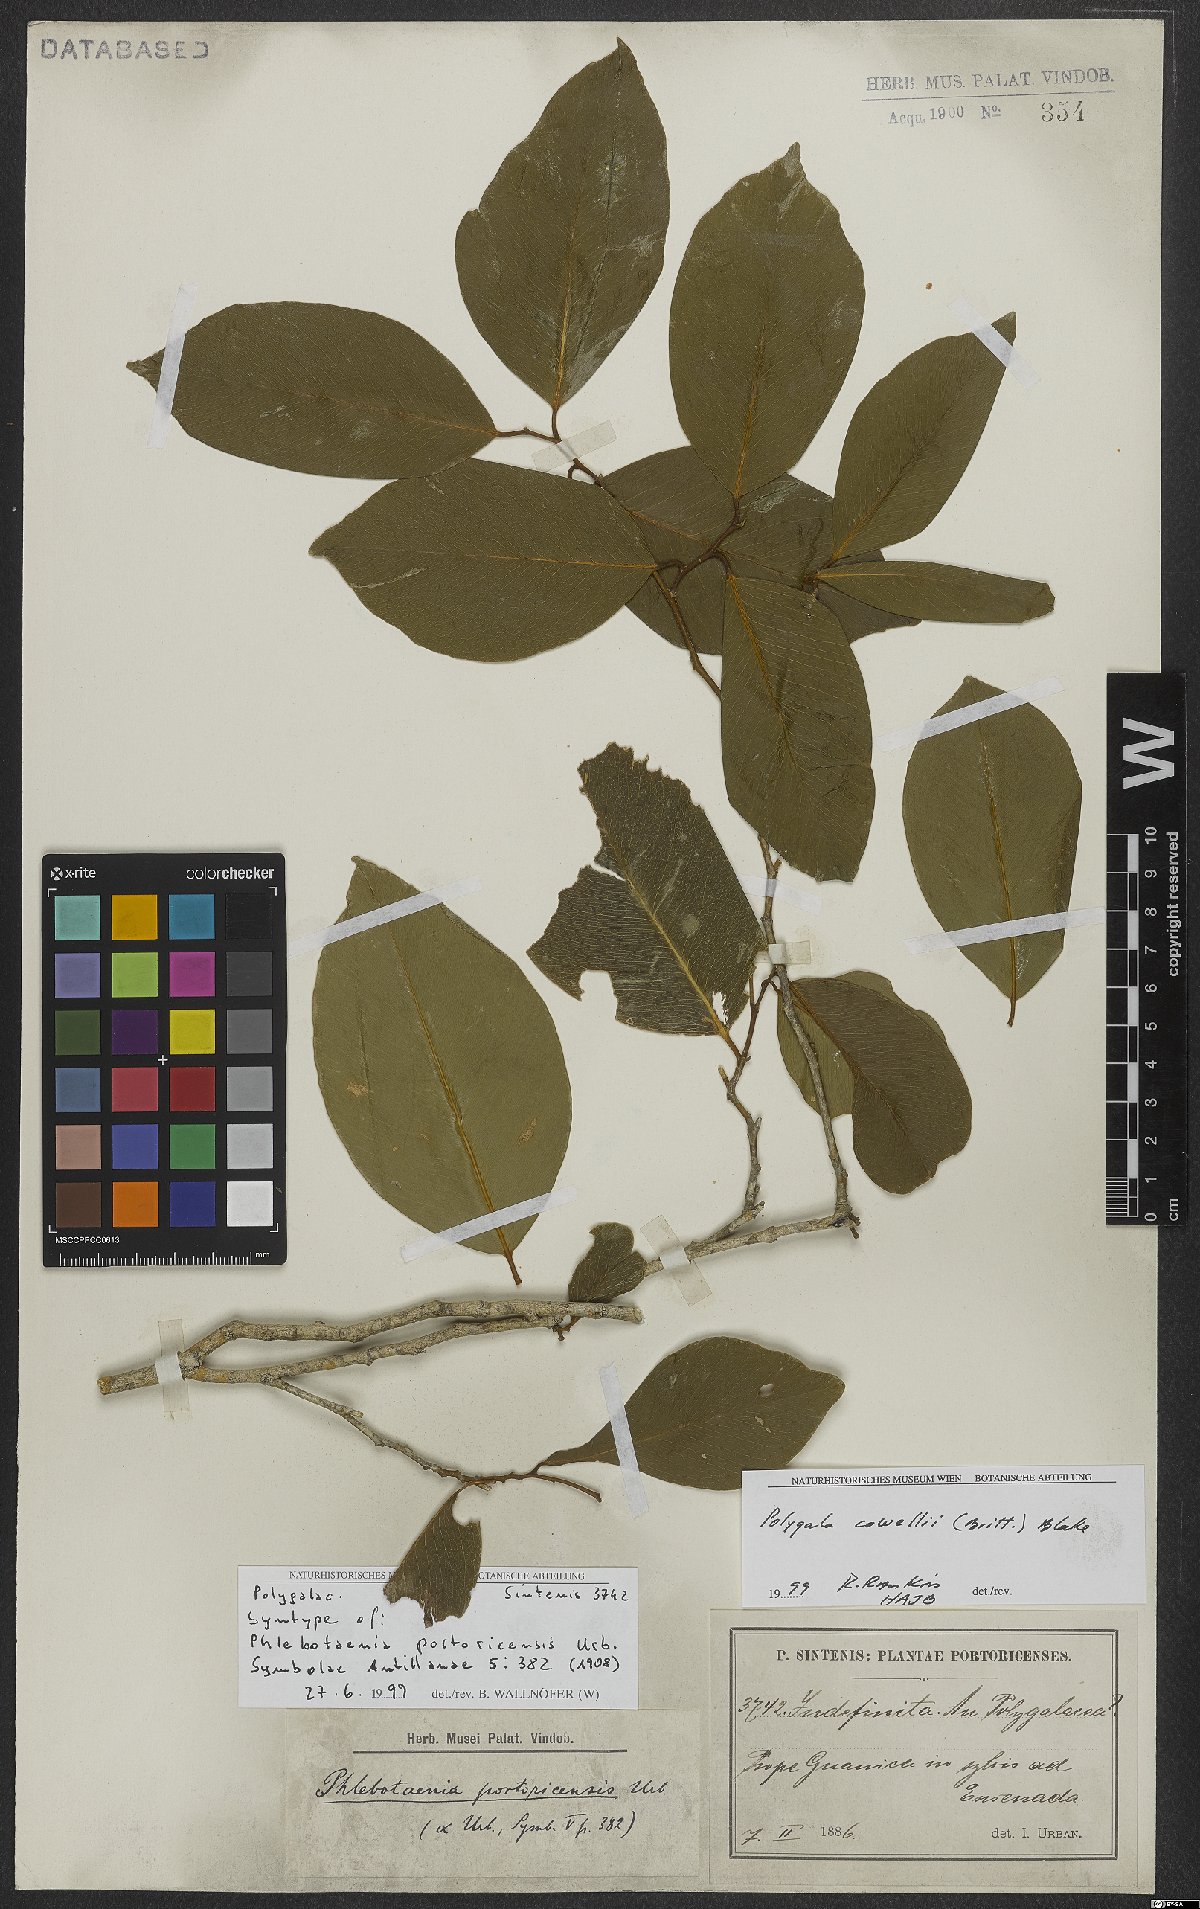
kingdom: Plantae
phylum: Tracheophyta
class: Magnoliopsida
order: Fabales
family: Polygalaceae
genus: Phlebotaenia
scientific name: Phlebotaenia cowellii
